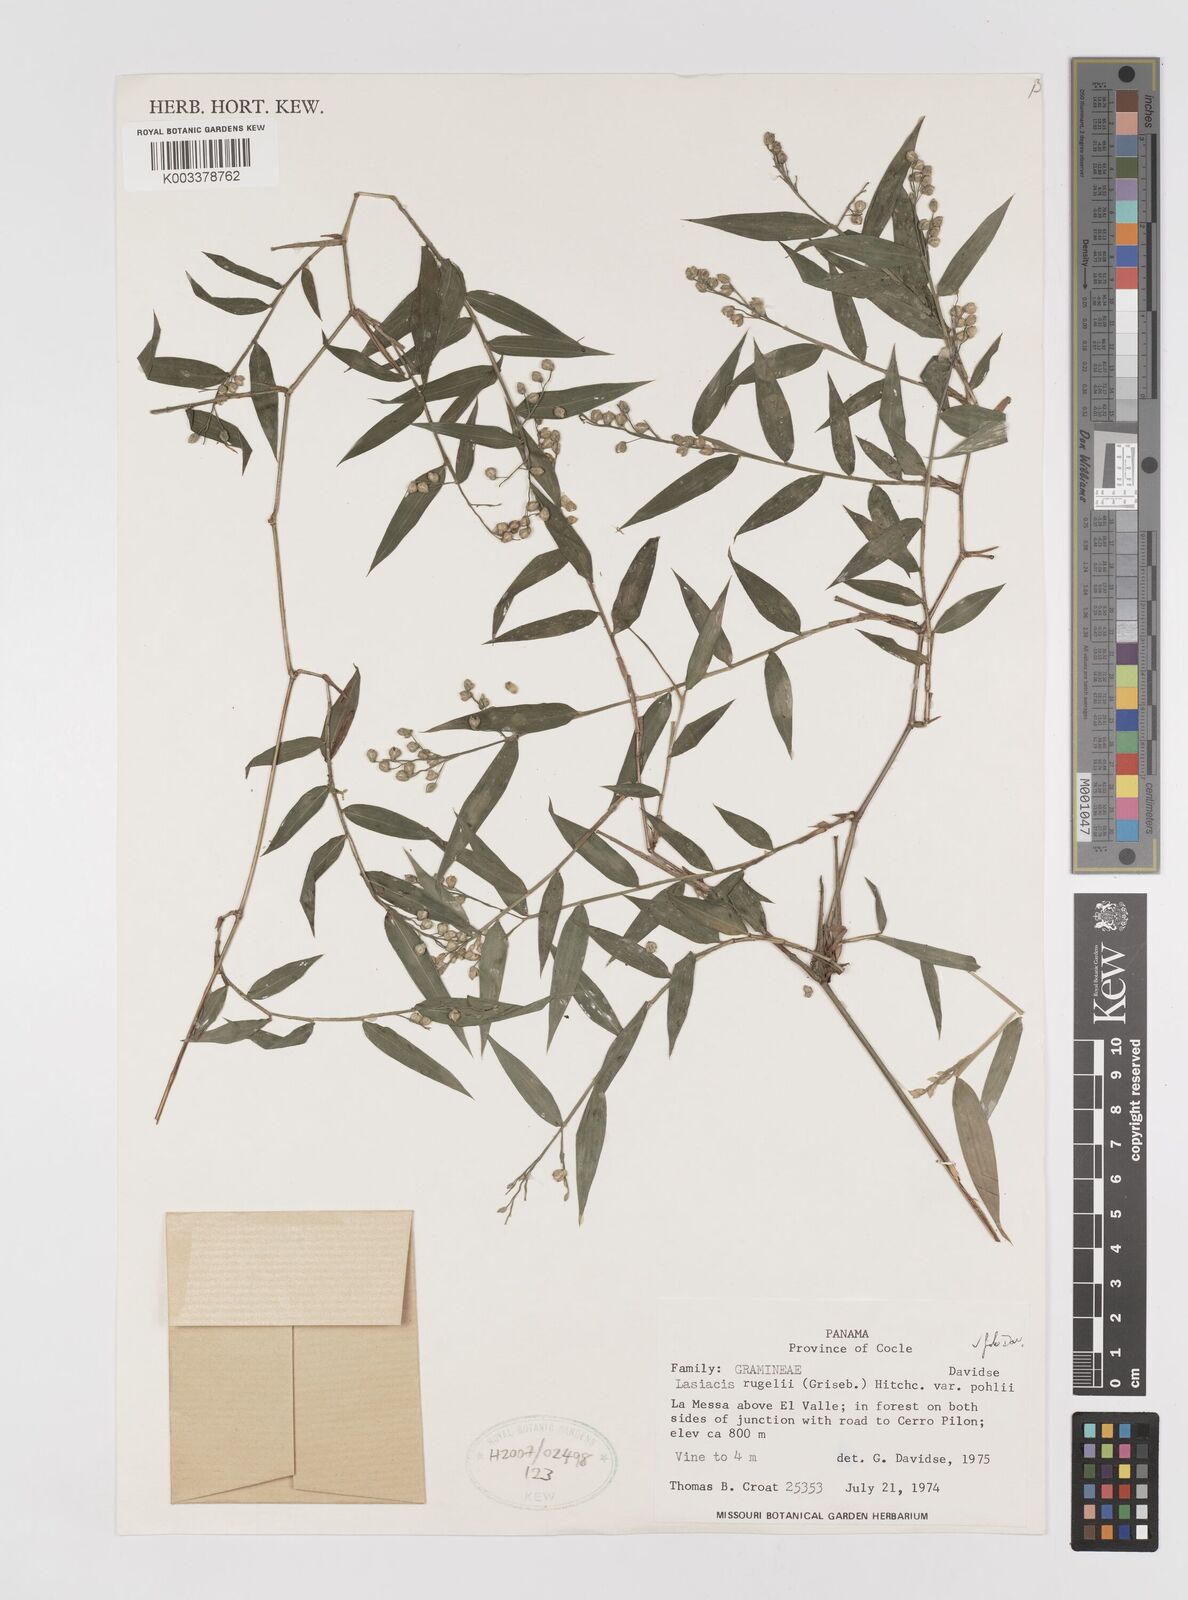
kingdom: Plantae
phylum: Tracheophyta
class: Liliopsida
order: Poales
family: Poaceae
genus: Lasiacis
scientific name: Lasiacis rugelii
